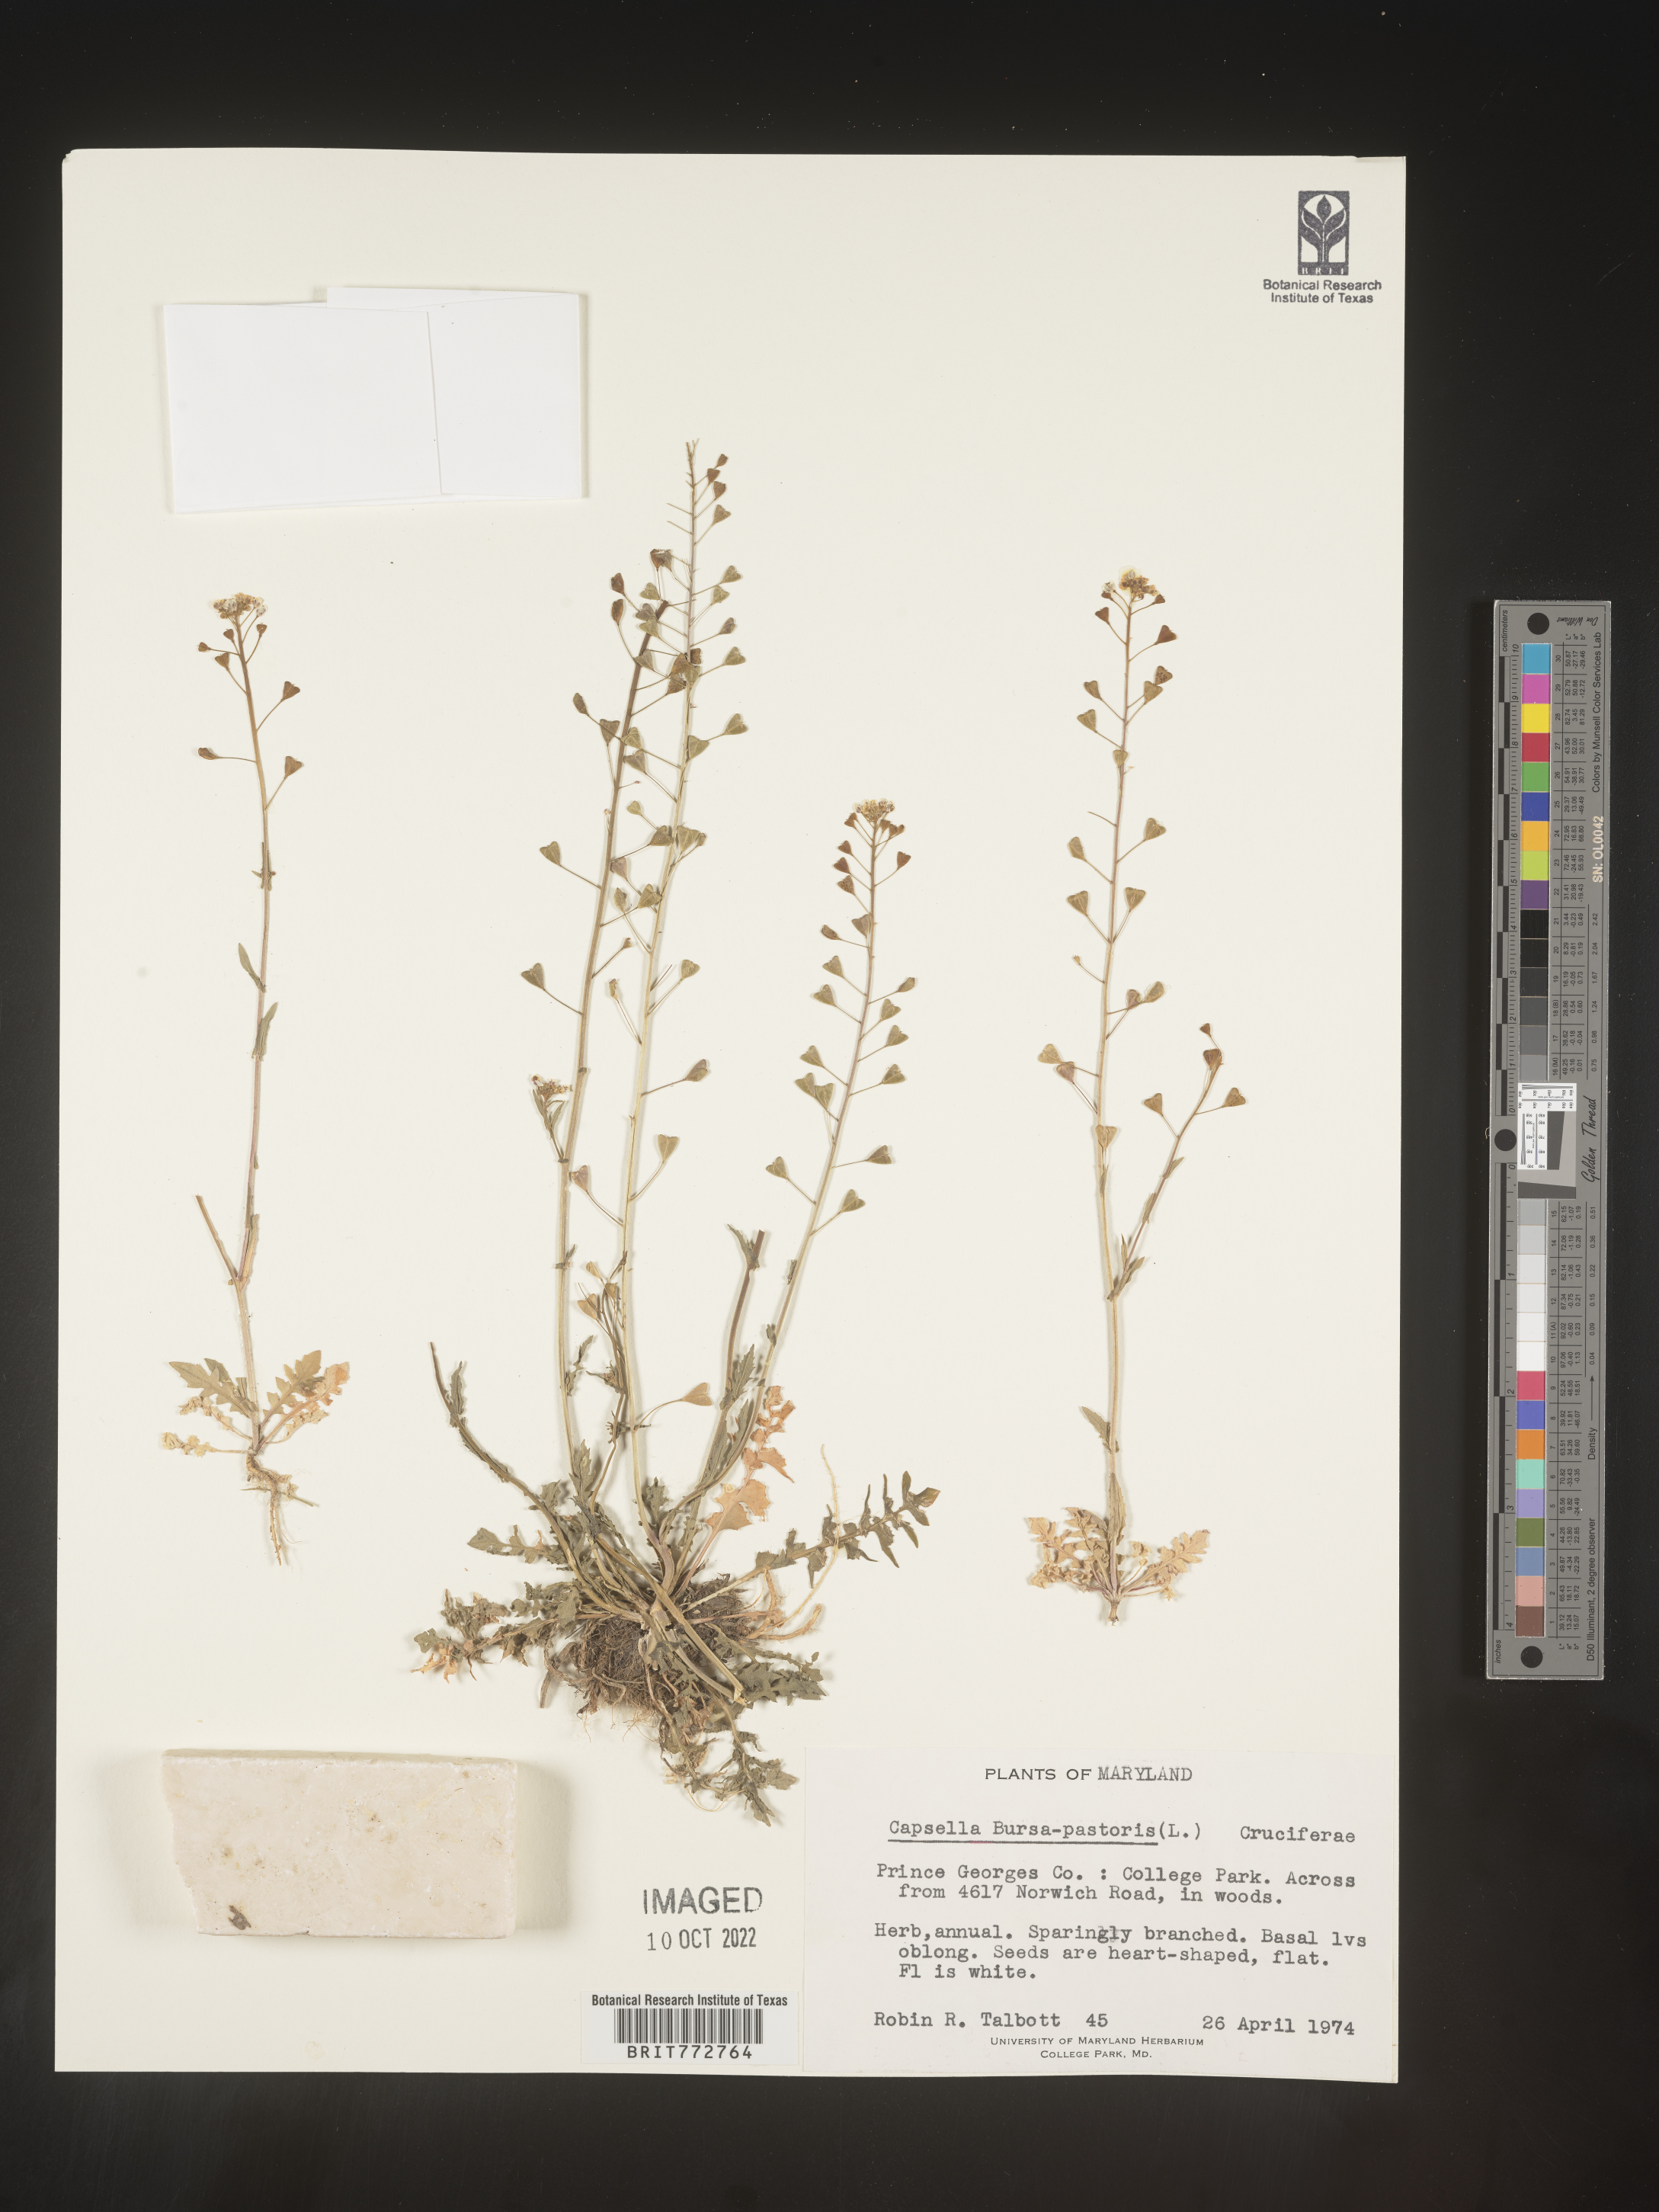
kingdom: Plantae
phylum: Tracheophyta
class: Magnoliopsida
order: Brassicales
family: Brassicaceae
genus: Capsella
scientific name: Capsella bursa-pastoris
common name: Shepherd's purse
